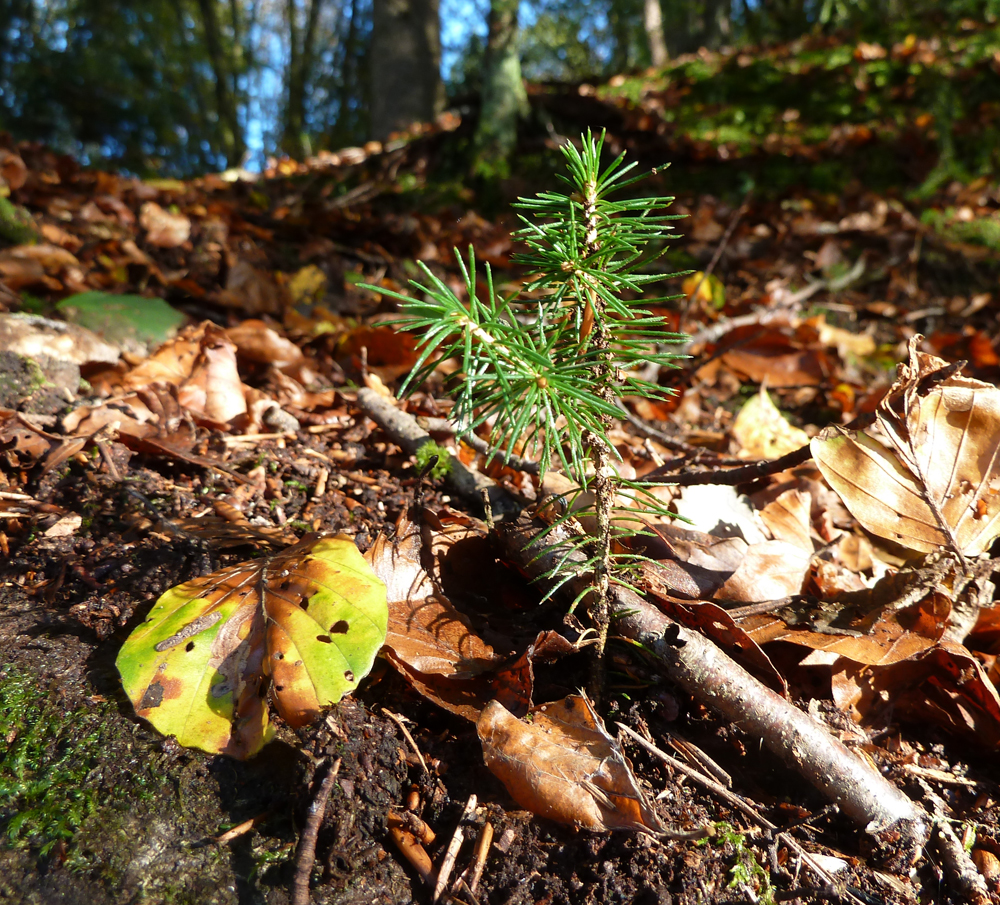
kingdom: Plantae
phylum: Tracheophyta
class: Pinopsida
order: Pinales
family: Pinaceae
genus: Picea
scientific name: Picea abies
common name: Norway spruce
